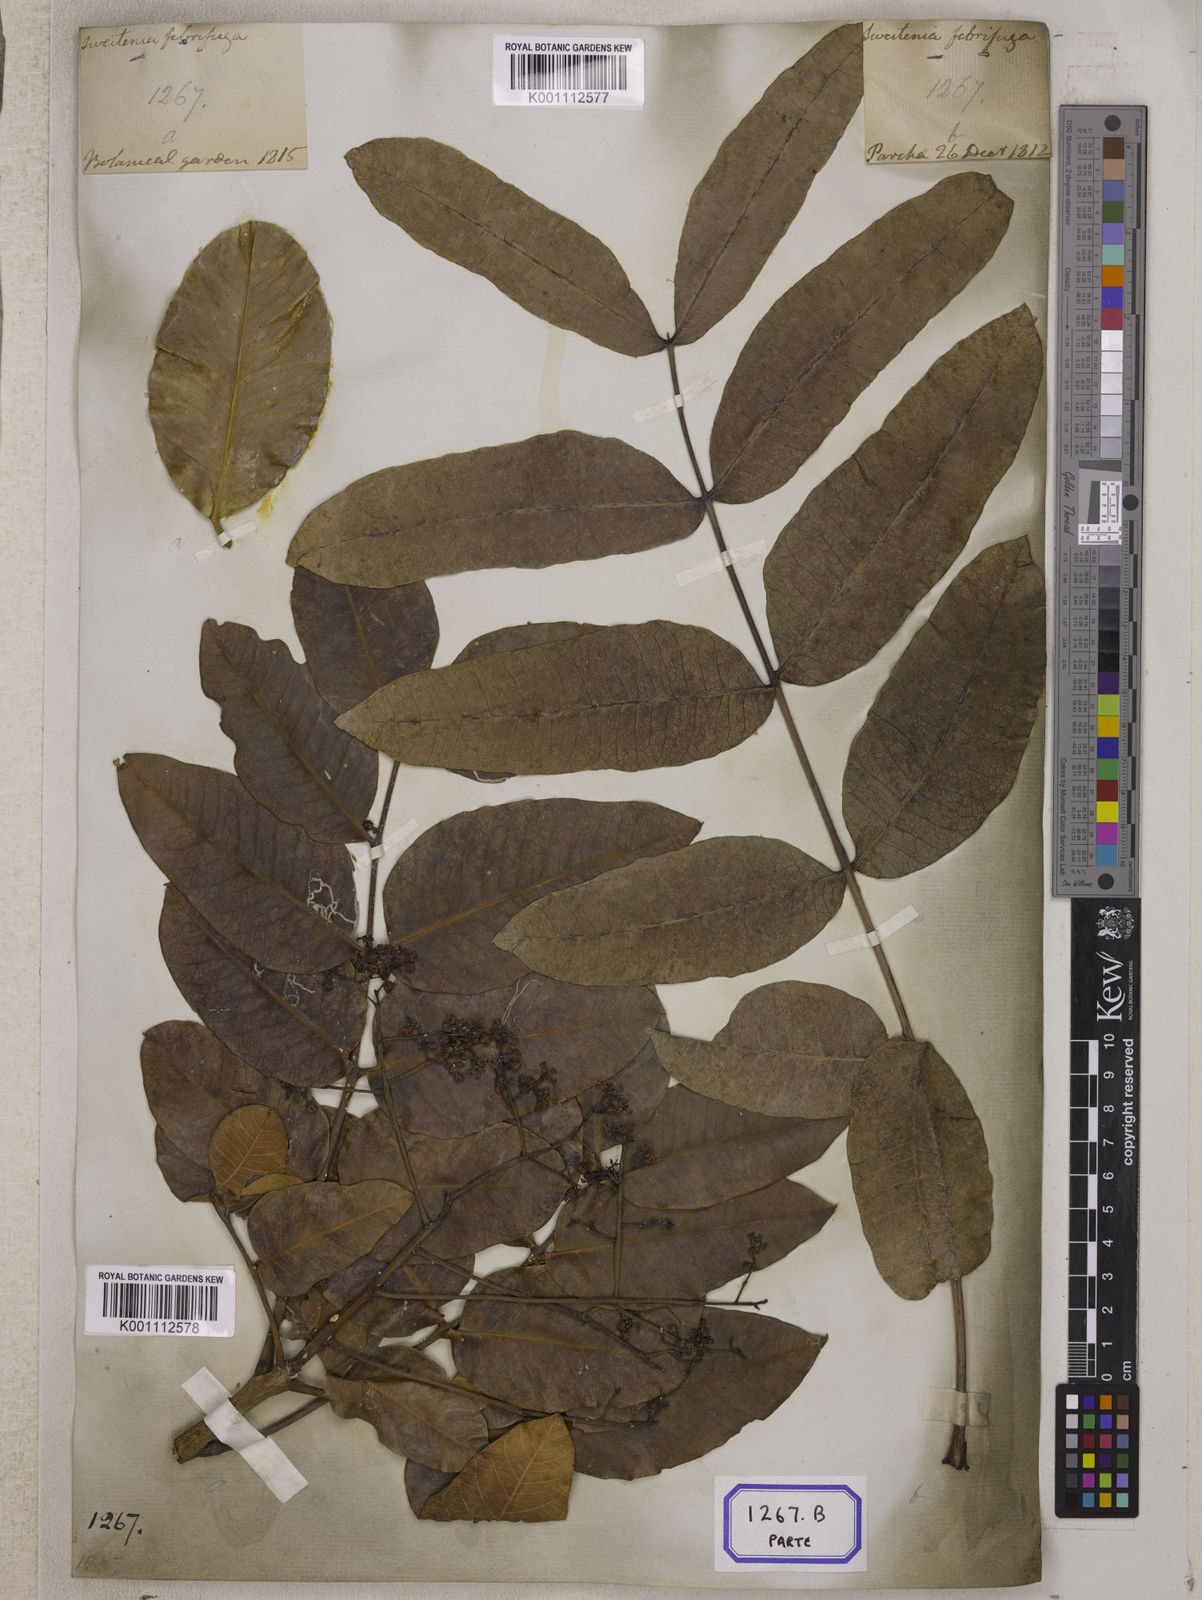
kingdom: Plantae
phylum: Tracheophyta
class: Magnoliopsida
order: Sapindales
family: Meliaceae
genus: Soymida
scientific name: Soymida febrifuga
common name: Indian-redwood
